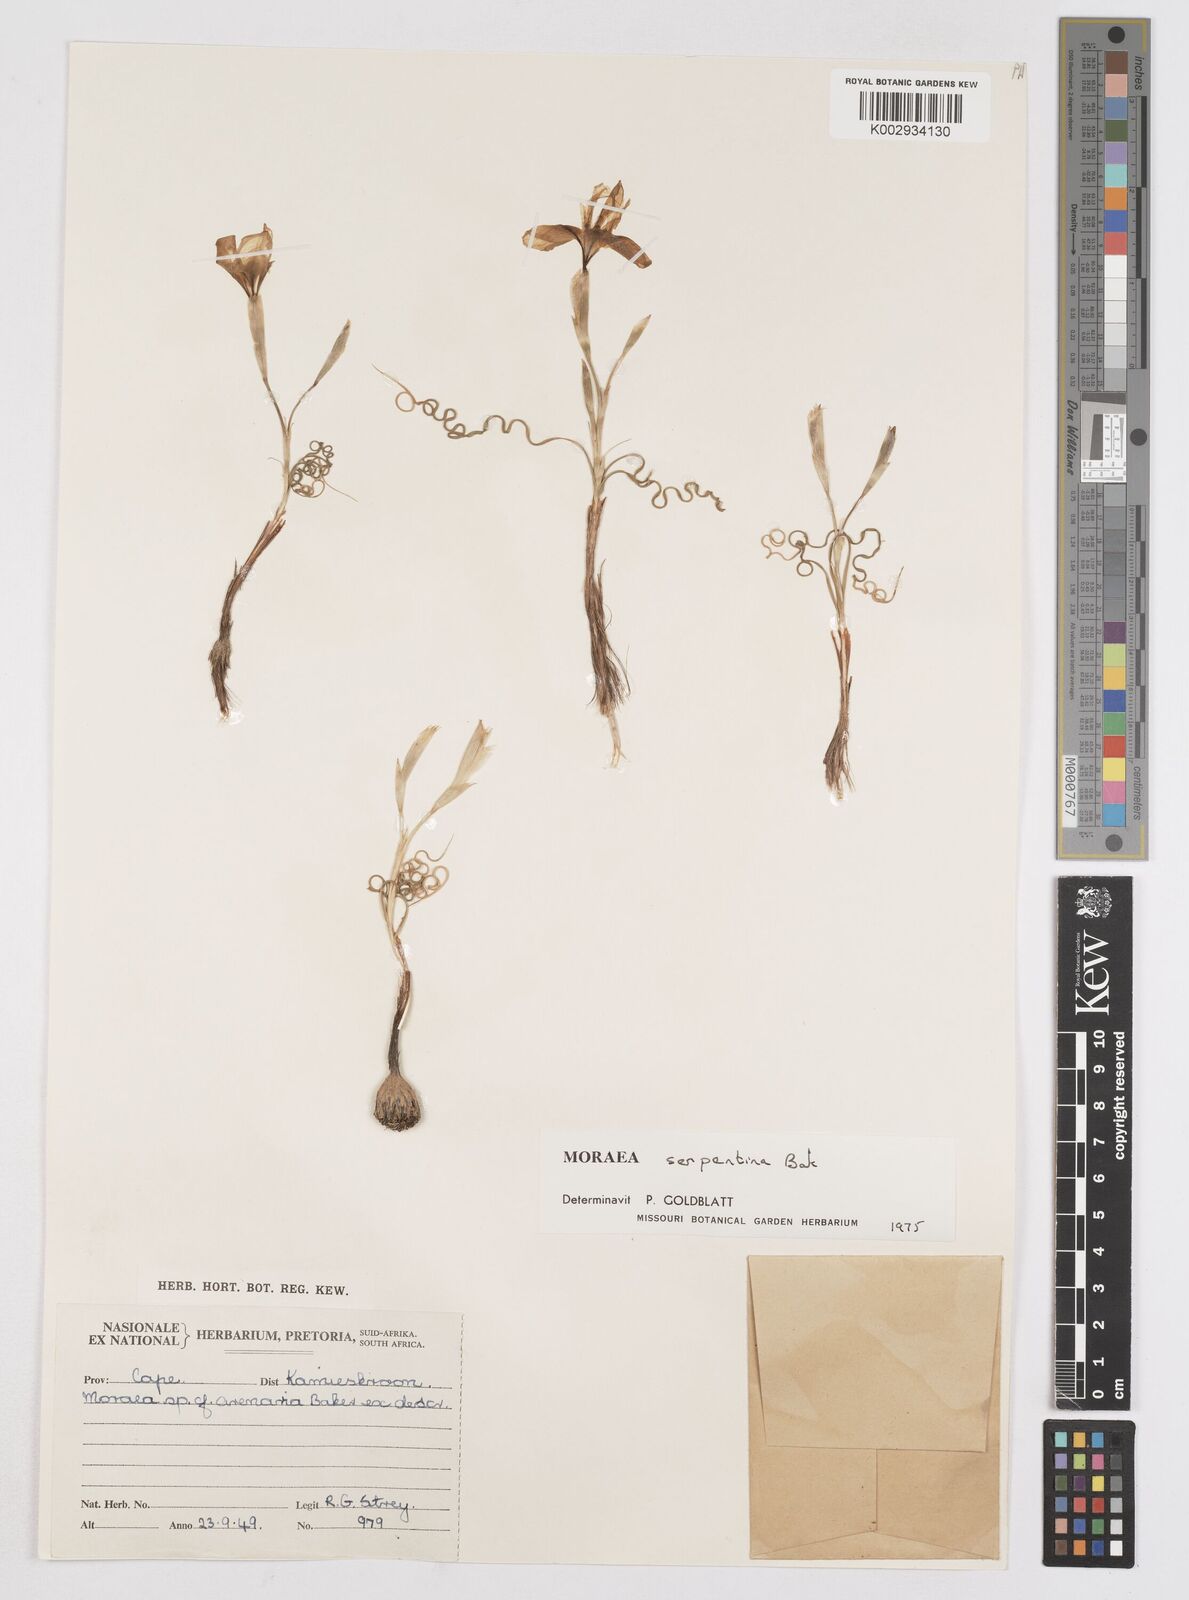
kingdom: Plantae
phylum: Tracheophyta
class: Liliopsida
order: Asparagales
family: Iridaceae
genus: Moraea
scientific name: Moraea serpentina
